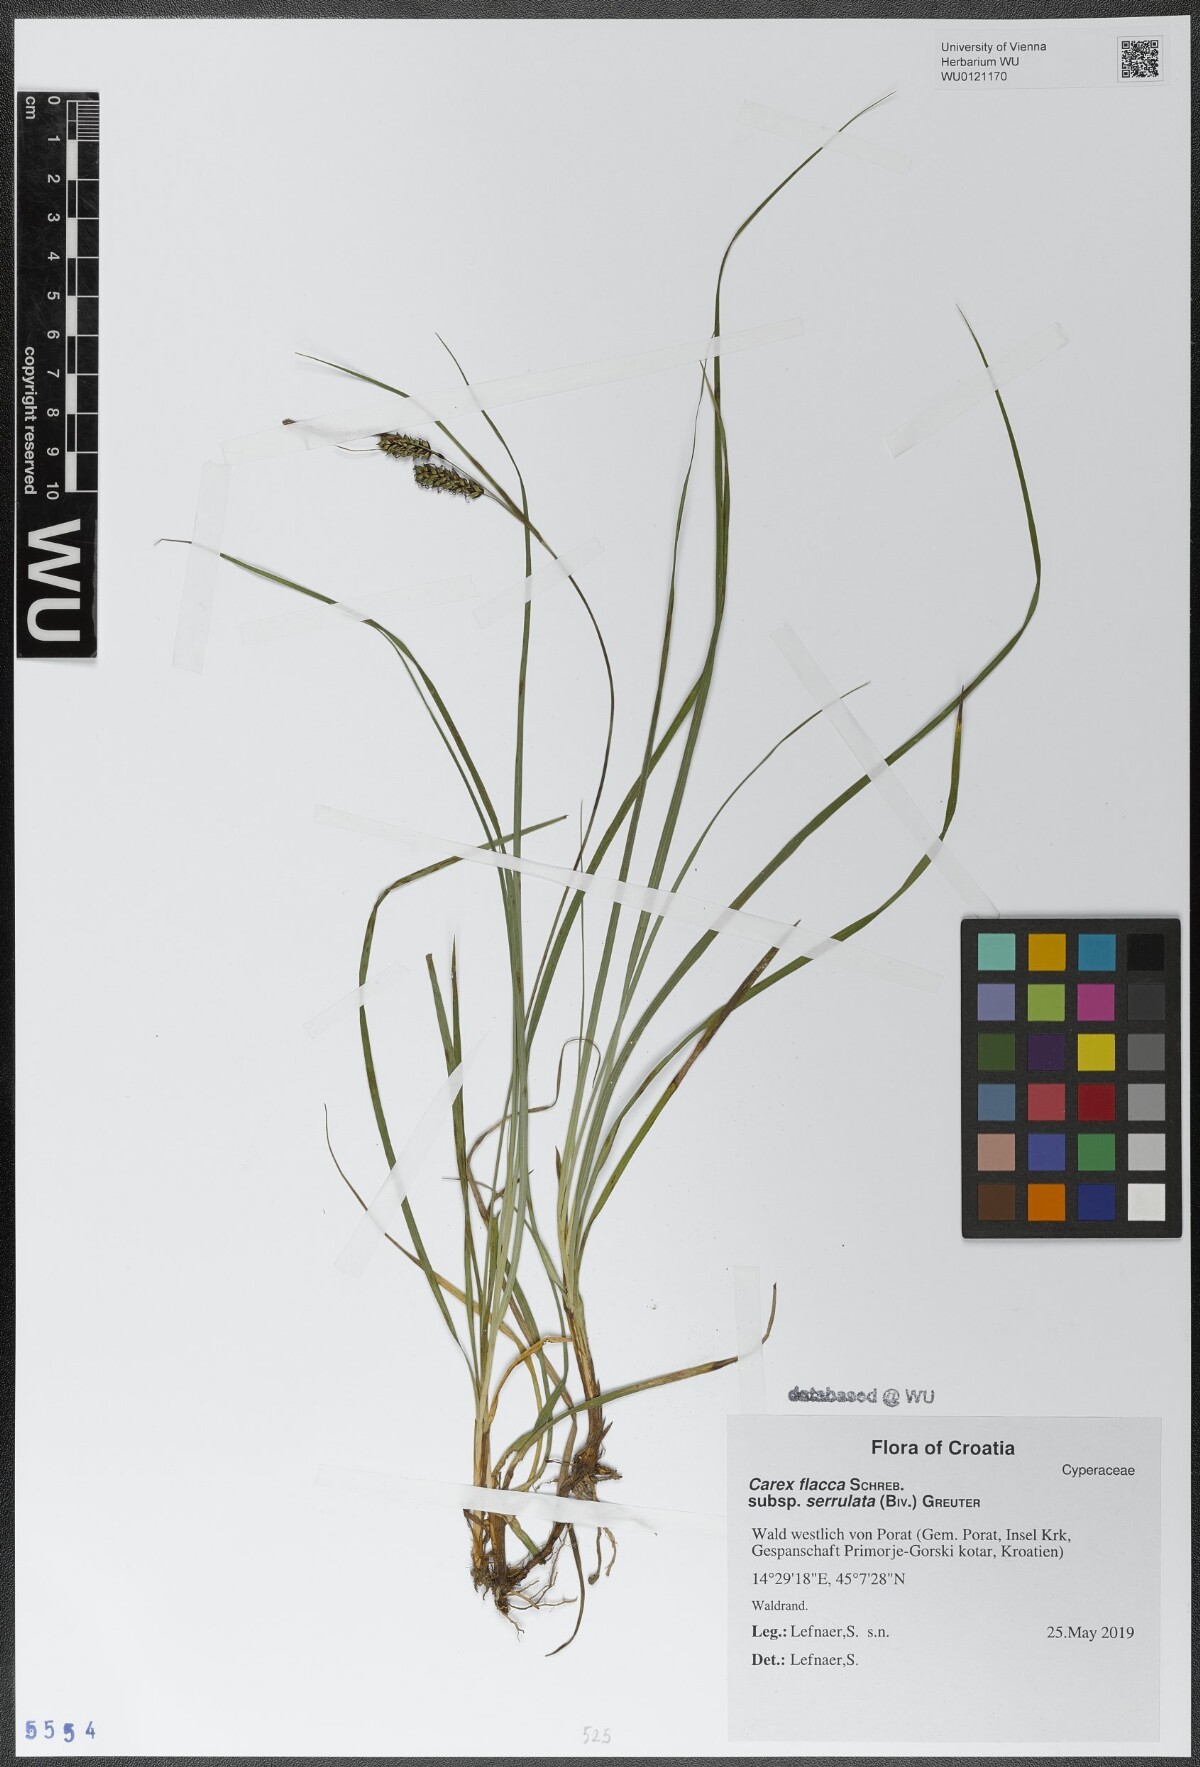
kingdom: Plantae
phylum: Tracheophyta
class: Liliopsida
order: Poales
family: Cyperaceae
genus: Carex
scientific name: Carex flacca
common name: Glaucous sedge
